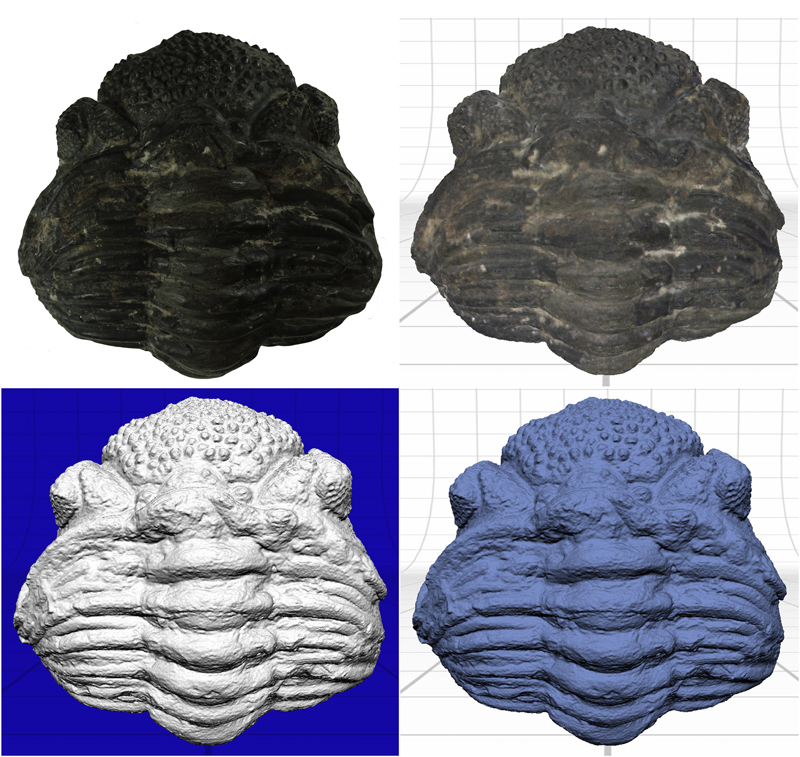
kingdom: Animalia
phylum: Arthropoda
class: Trilobita
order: Phacopida
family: Phacopidae
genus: Phacops
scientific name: Phacops
